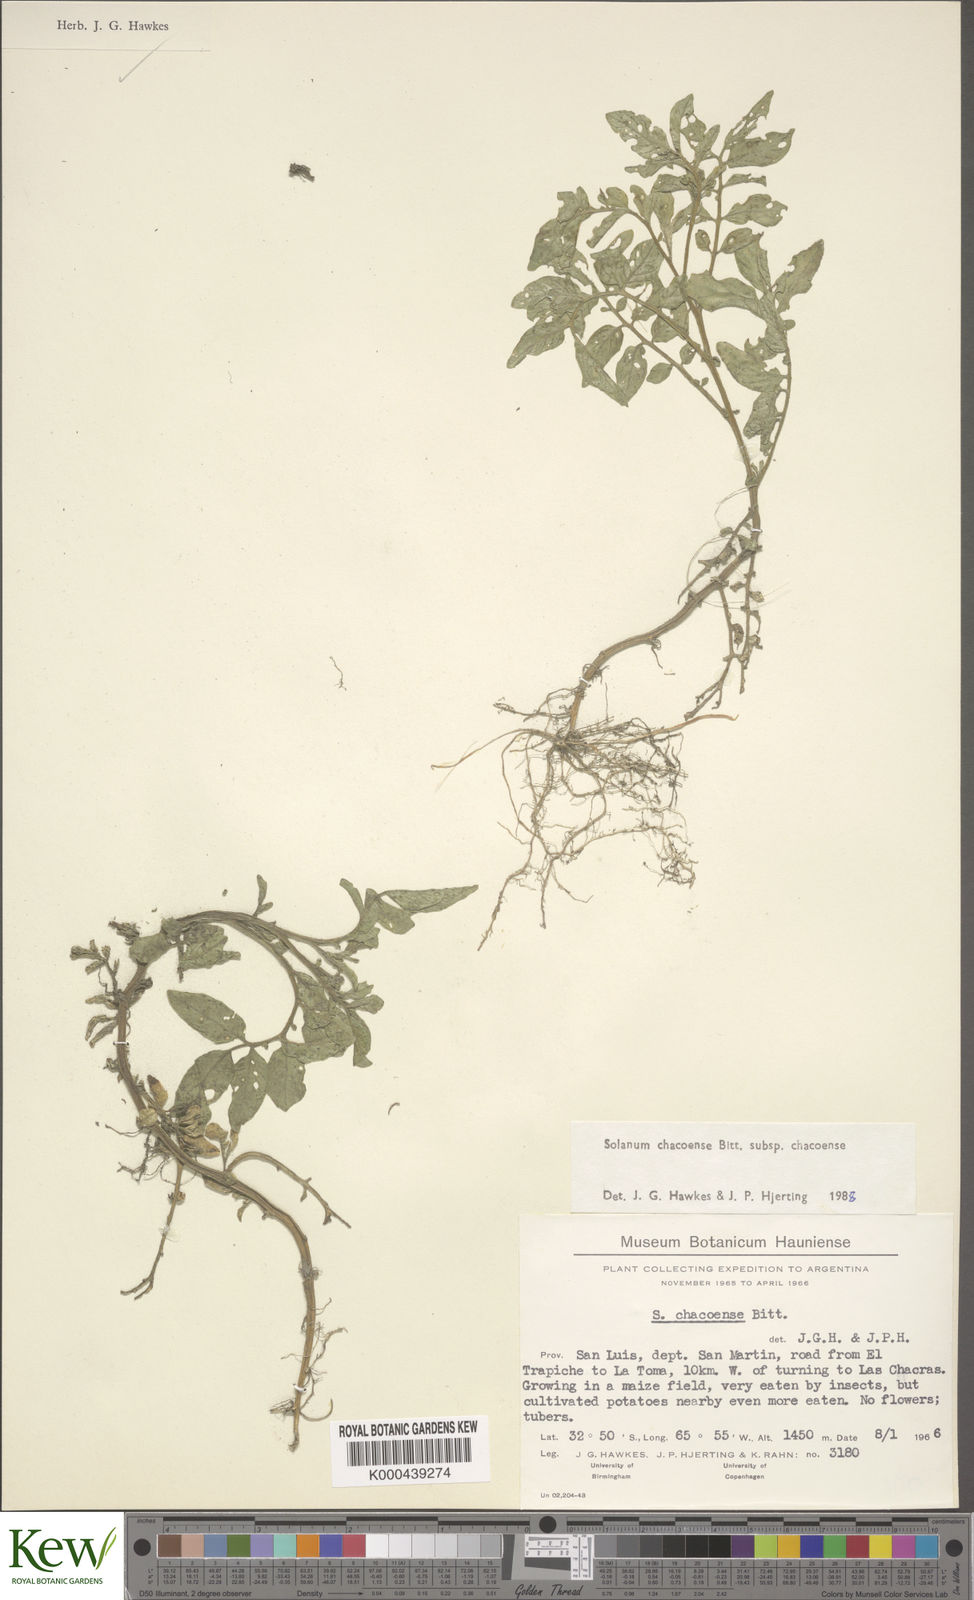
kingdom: Plantae
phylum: Tracheophyta
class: Magnoliopsida
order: Solanales
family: Solanaceae
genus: Solanum
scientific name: Solanum chacoense
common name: Chaco potato
